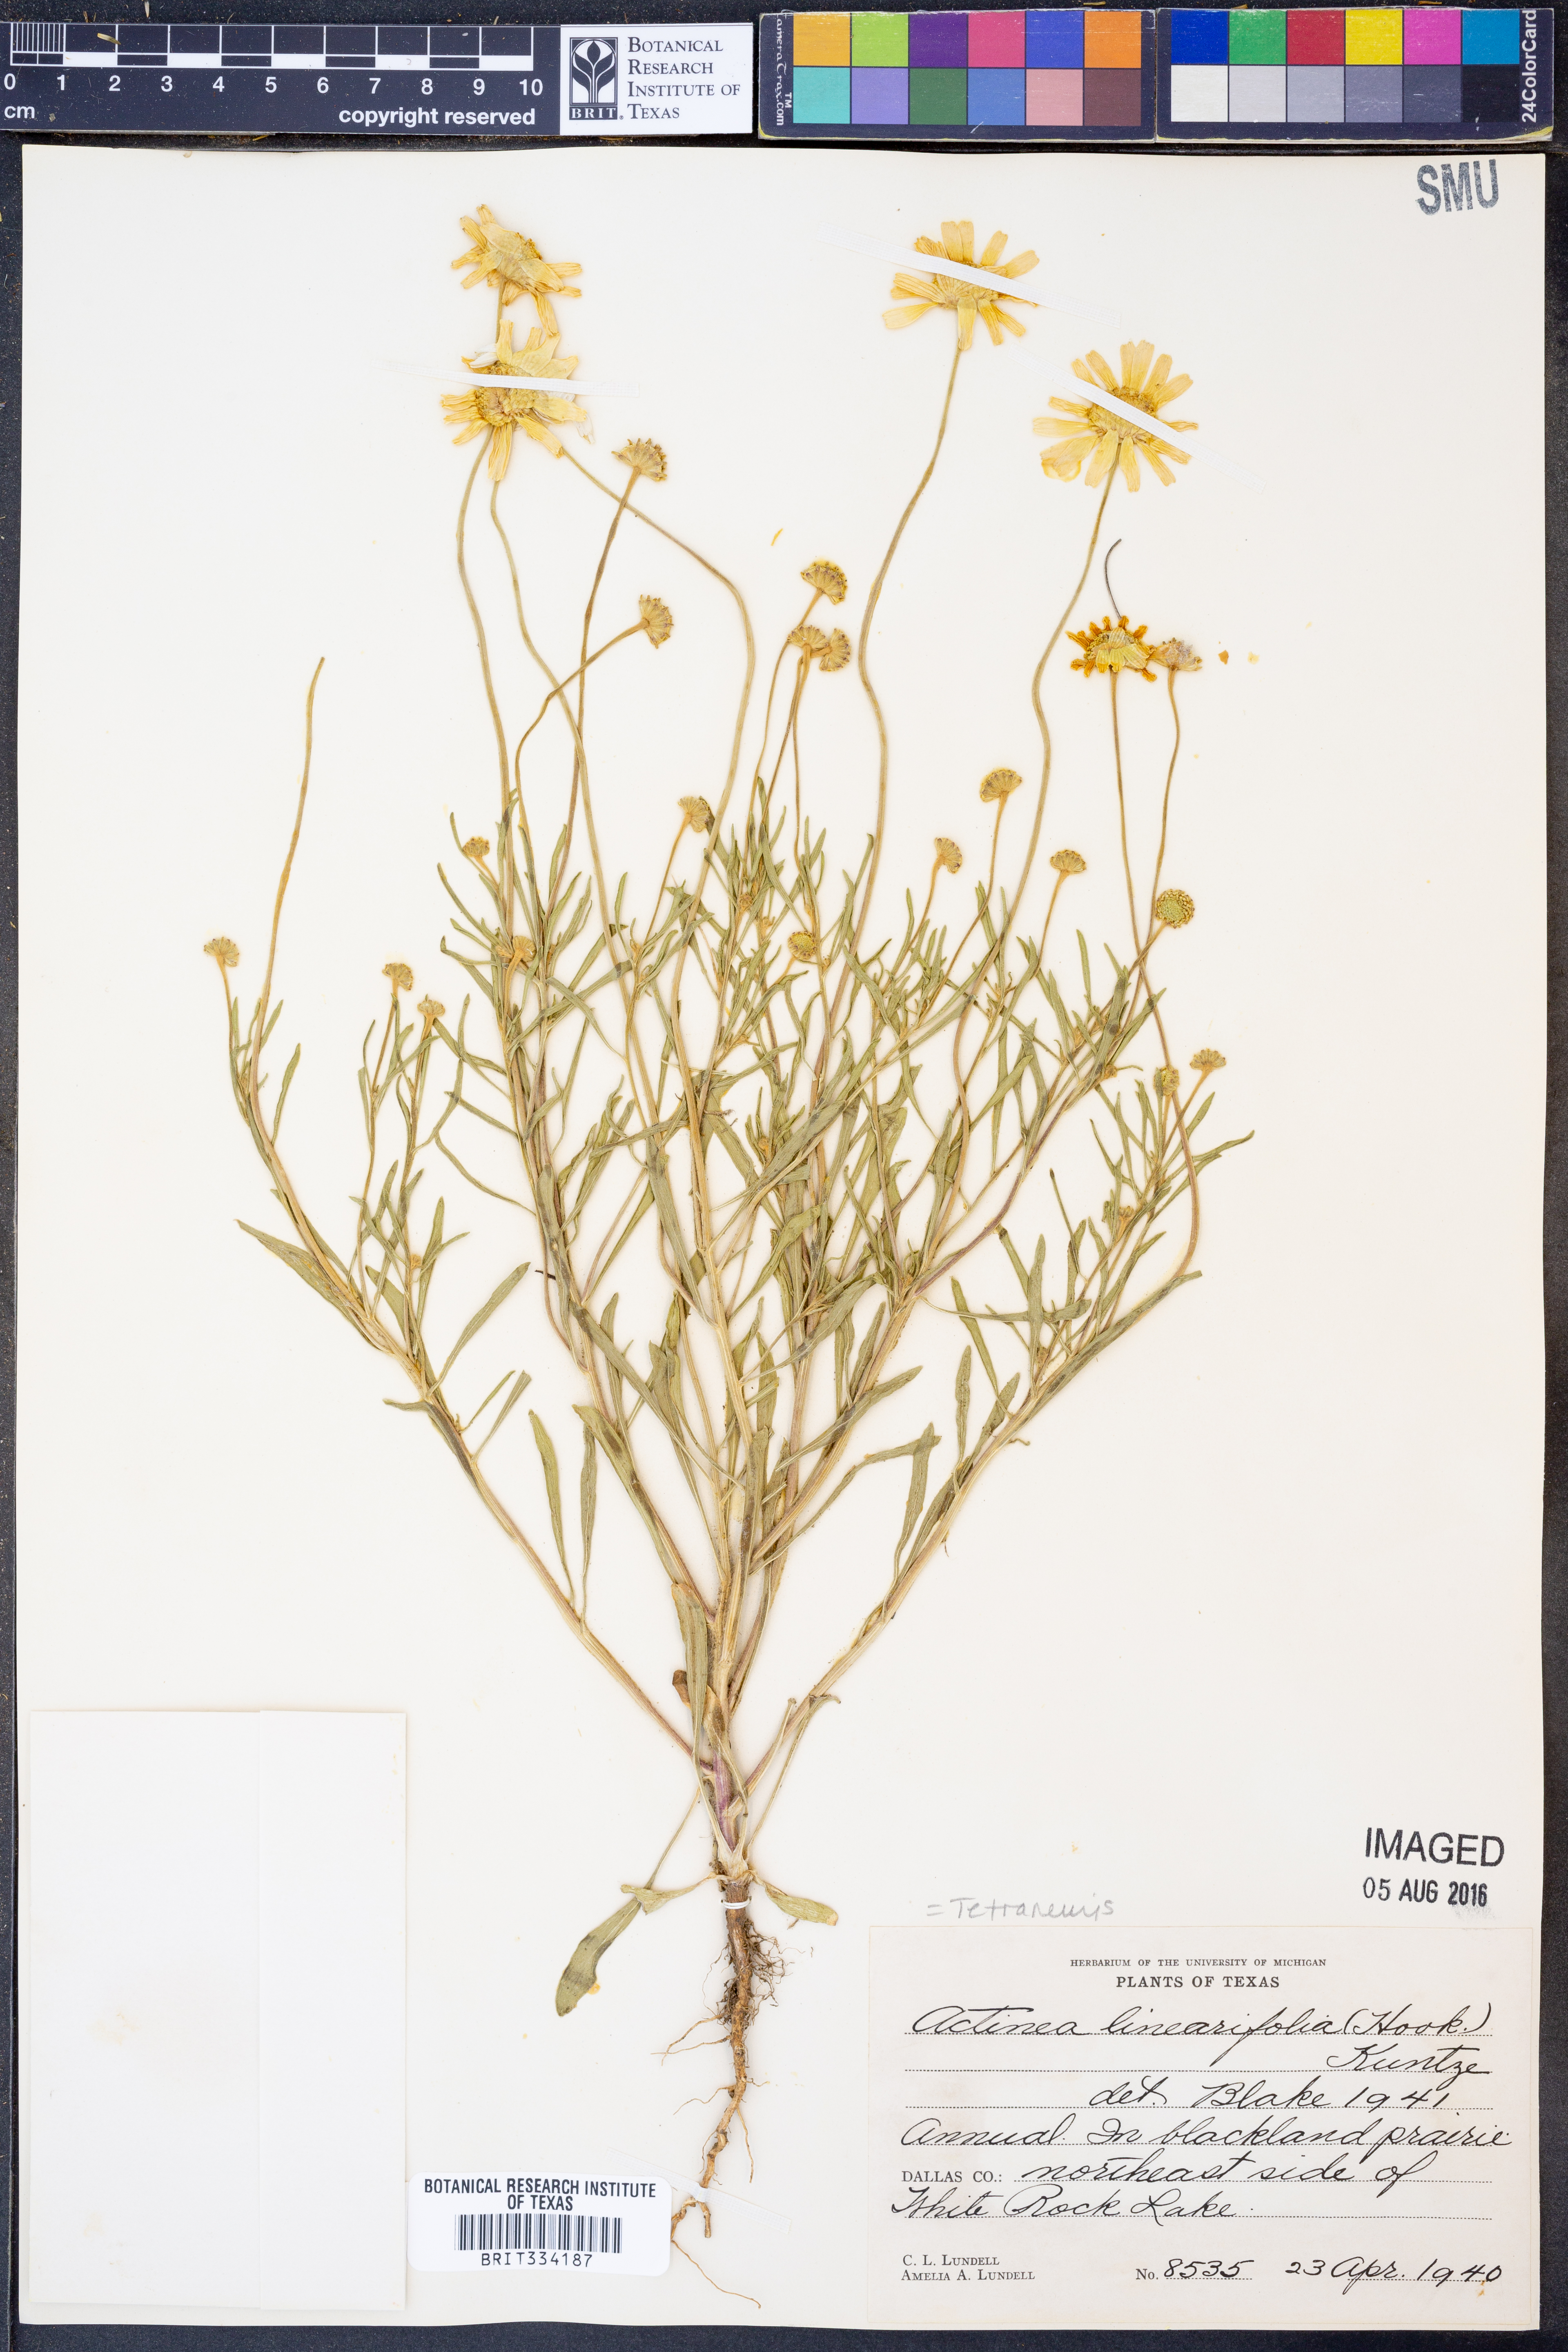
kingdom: Plantae
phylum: Tracheophyta
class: Magnoliopsida
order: Asterales
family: Asteraceae
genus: Tetraneuris
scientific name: Tetraneuris linearifolia
